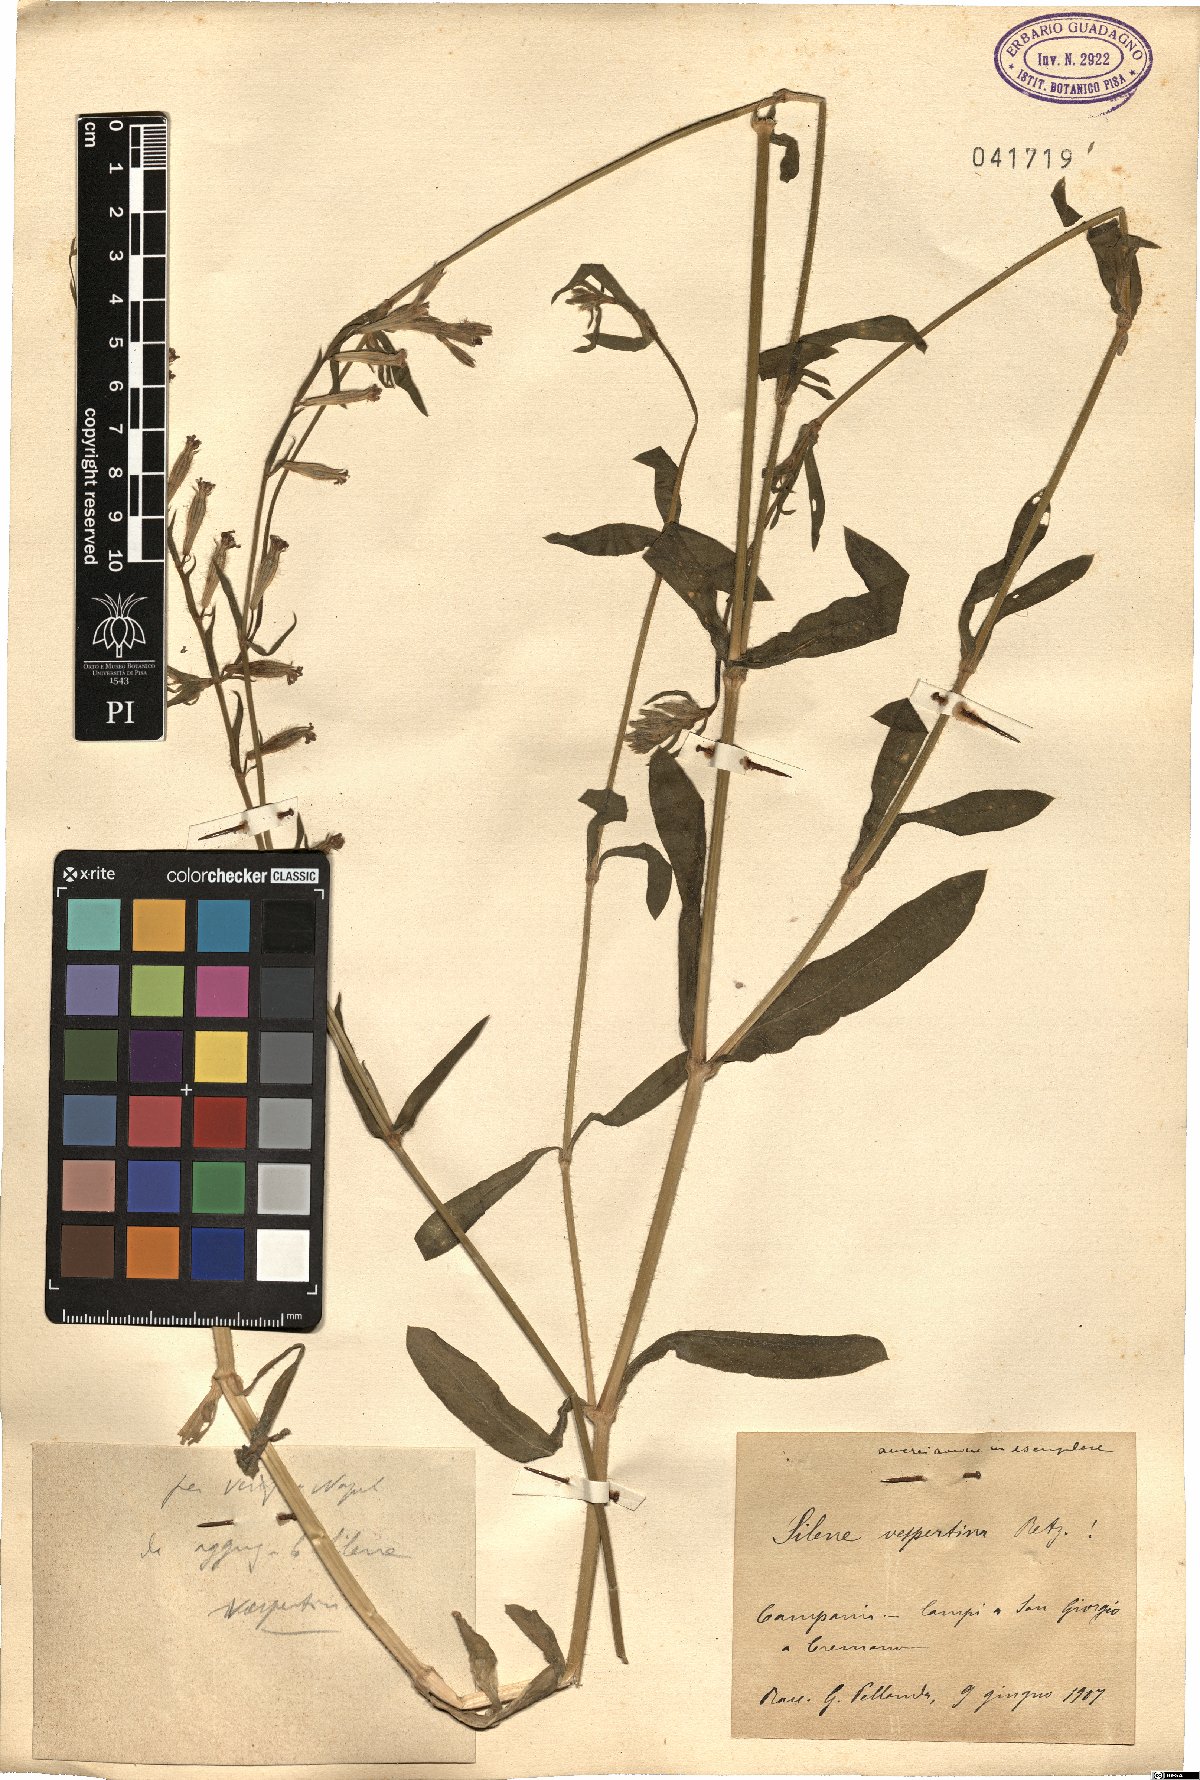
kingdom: Plantae
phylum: Tracheophyta
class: Magnoliopsida
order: Caryophyllales
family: Caryophyllaceae
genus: Silene
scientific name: Silene bellidifolia
